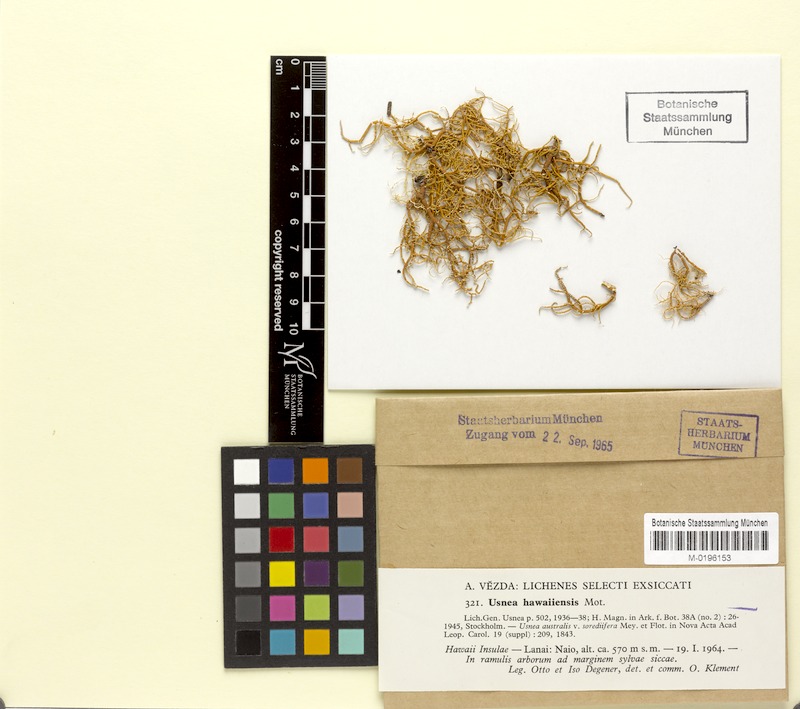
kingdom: Fungi
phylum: Ascomycota
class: Lecanoromycetes
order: Lecanorales
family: Parmeliaceae
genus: Usnea
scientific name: Usnea hawaiiensis
